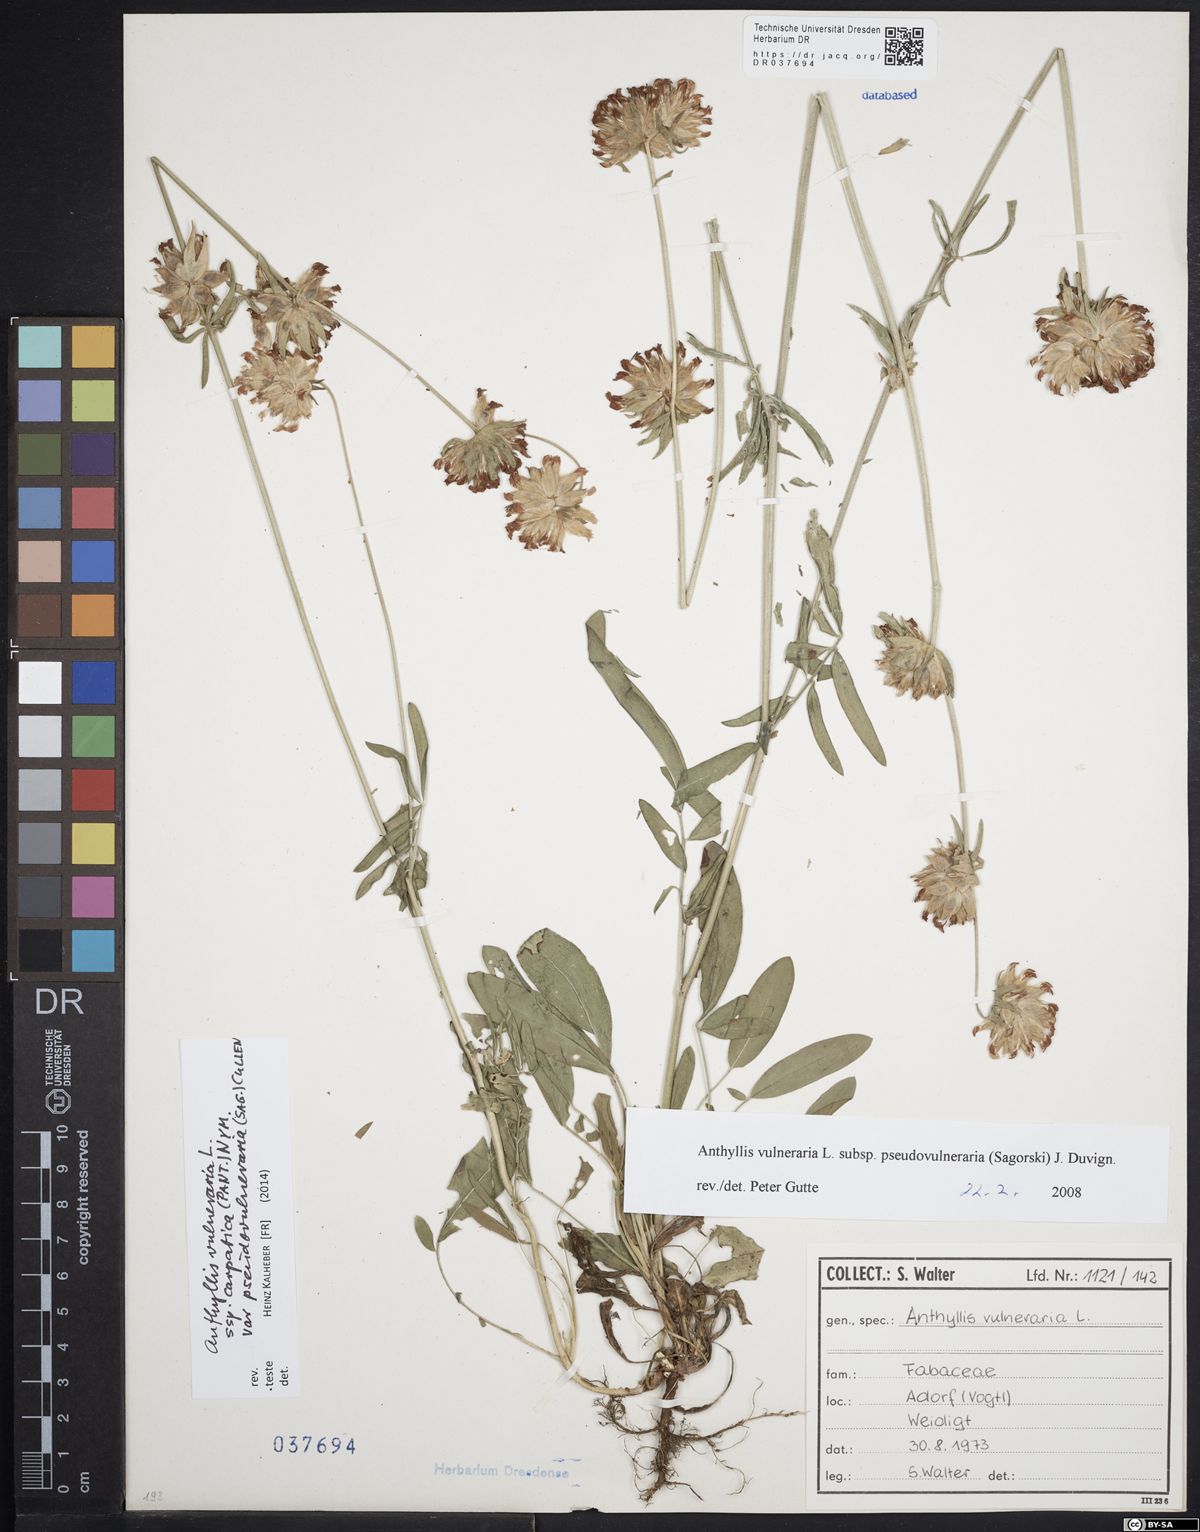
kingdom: Plantae
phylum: Tracheophyta
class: Magnoliopsida
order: Fabales
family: Fabaceae
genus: Anthyllis
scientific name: Anthyllis vulneraria
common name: Kidney vetch
